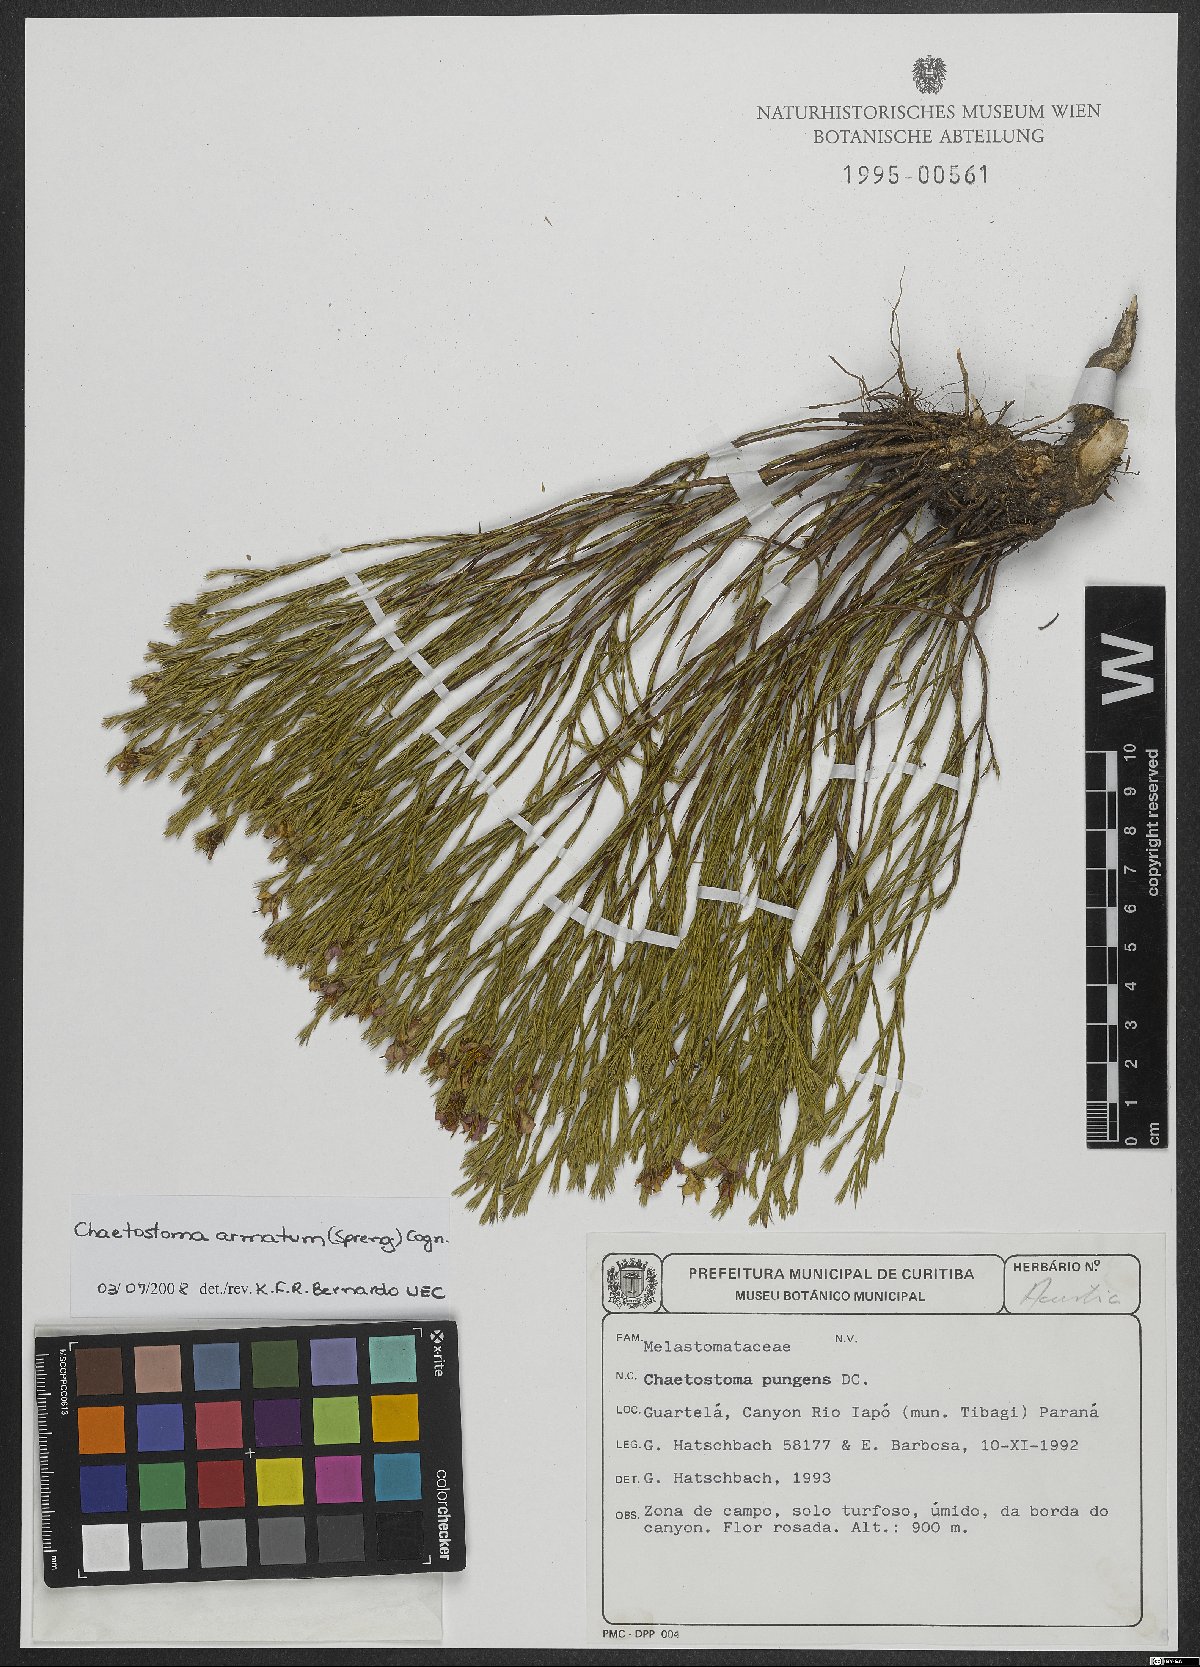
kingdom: Plantae
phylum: Tracheophyta
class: Magnoliopsida
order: Myrtales
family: Melastomataceae
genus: Microlicia
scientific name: Microlicia armata
